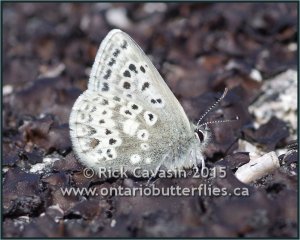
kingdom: Animalia
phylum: Arthropoda
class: Insecta
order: Lepidoptera
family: Lycaenidae
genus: Agriades
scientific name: Agriades glandon
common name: Arctic Blue
